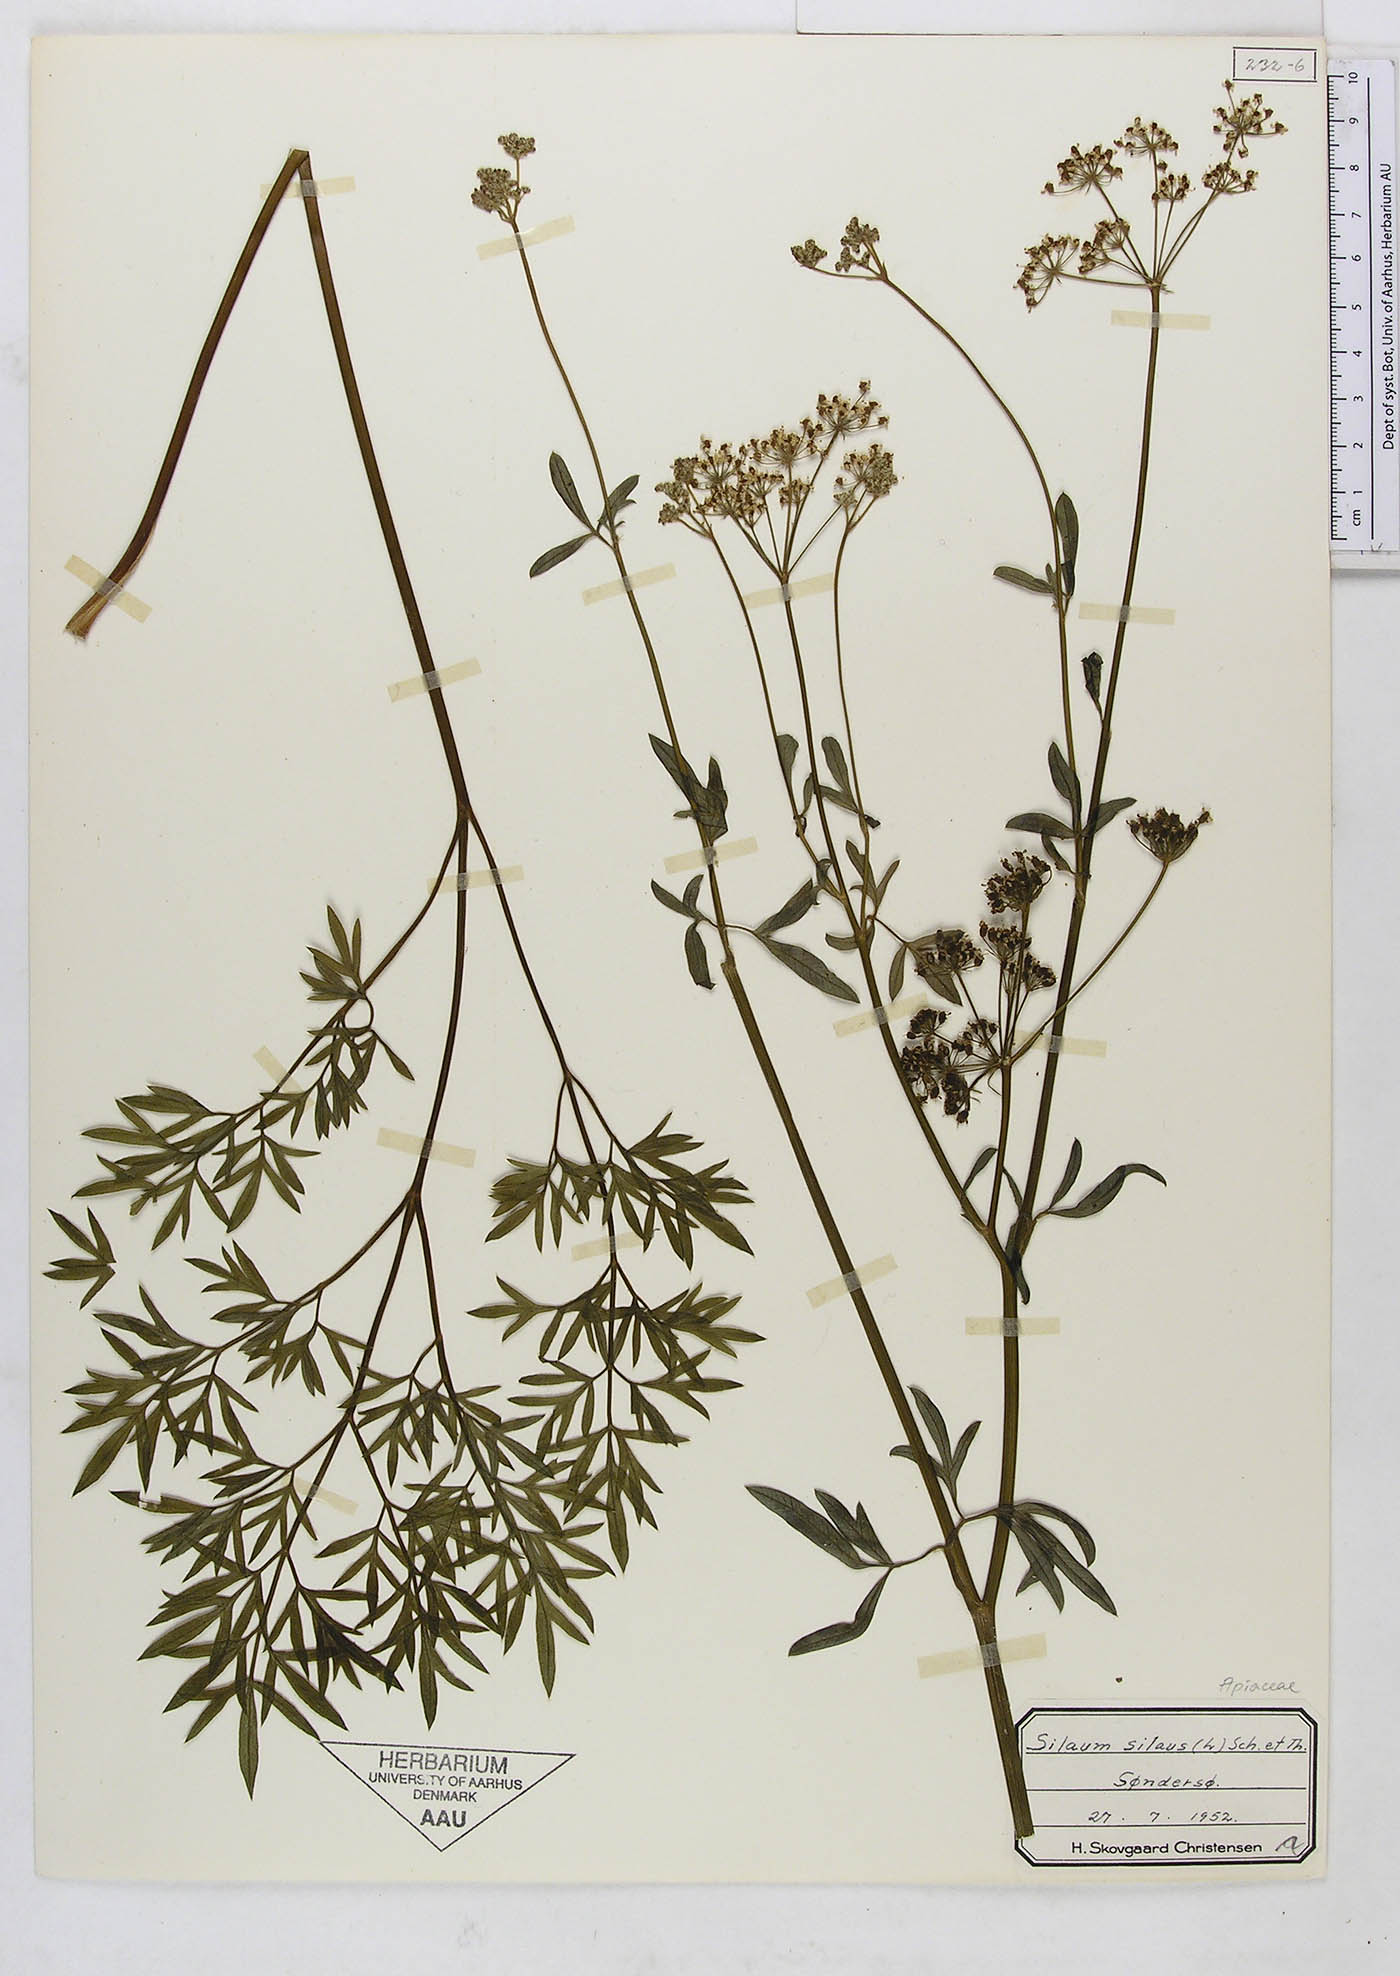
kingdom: Plantae
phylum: Tracheophyta
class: Magnoliopsida
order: Apiales
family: Apiaceae
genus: Silaum
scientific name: Silaum silaus
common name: Pepper-saxifrage
